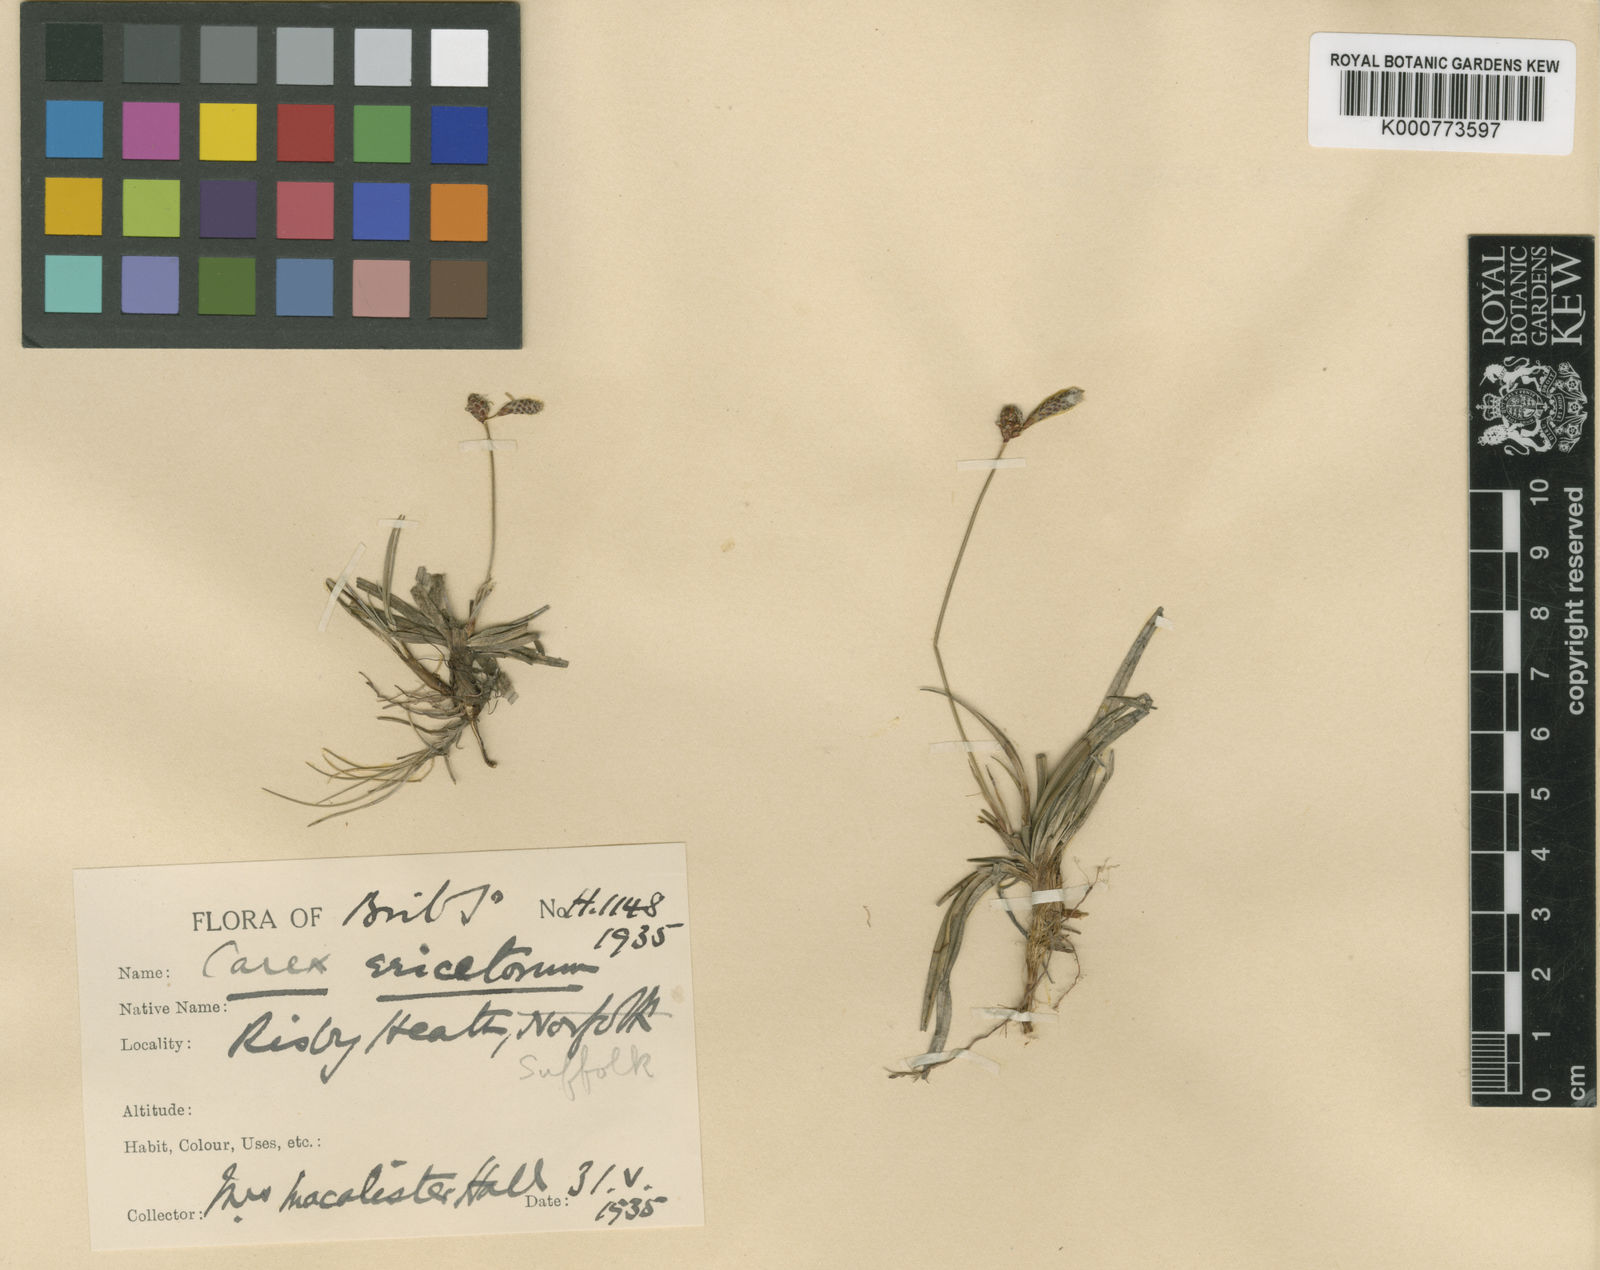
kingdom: Plantae
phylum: Tracheophyta
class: Liliopsida
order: Poales
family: Cyperaceae
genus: Carex
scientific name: Carex ericetorum
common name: Rare spring-sedge
